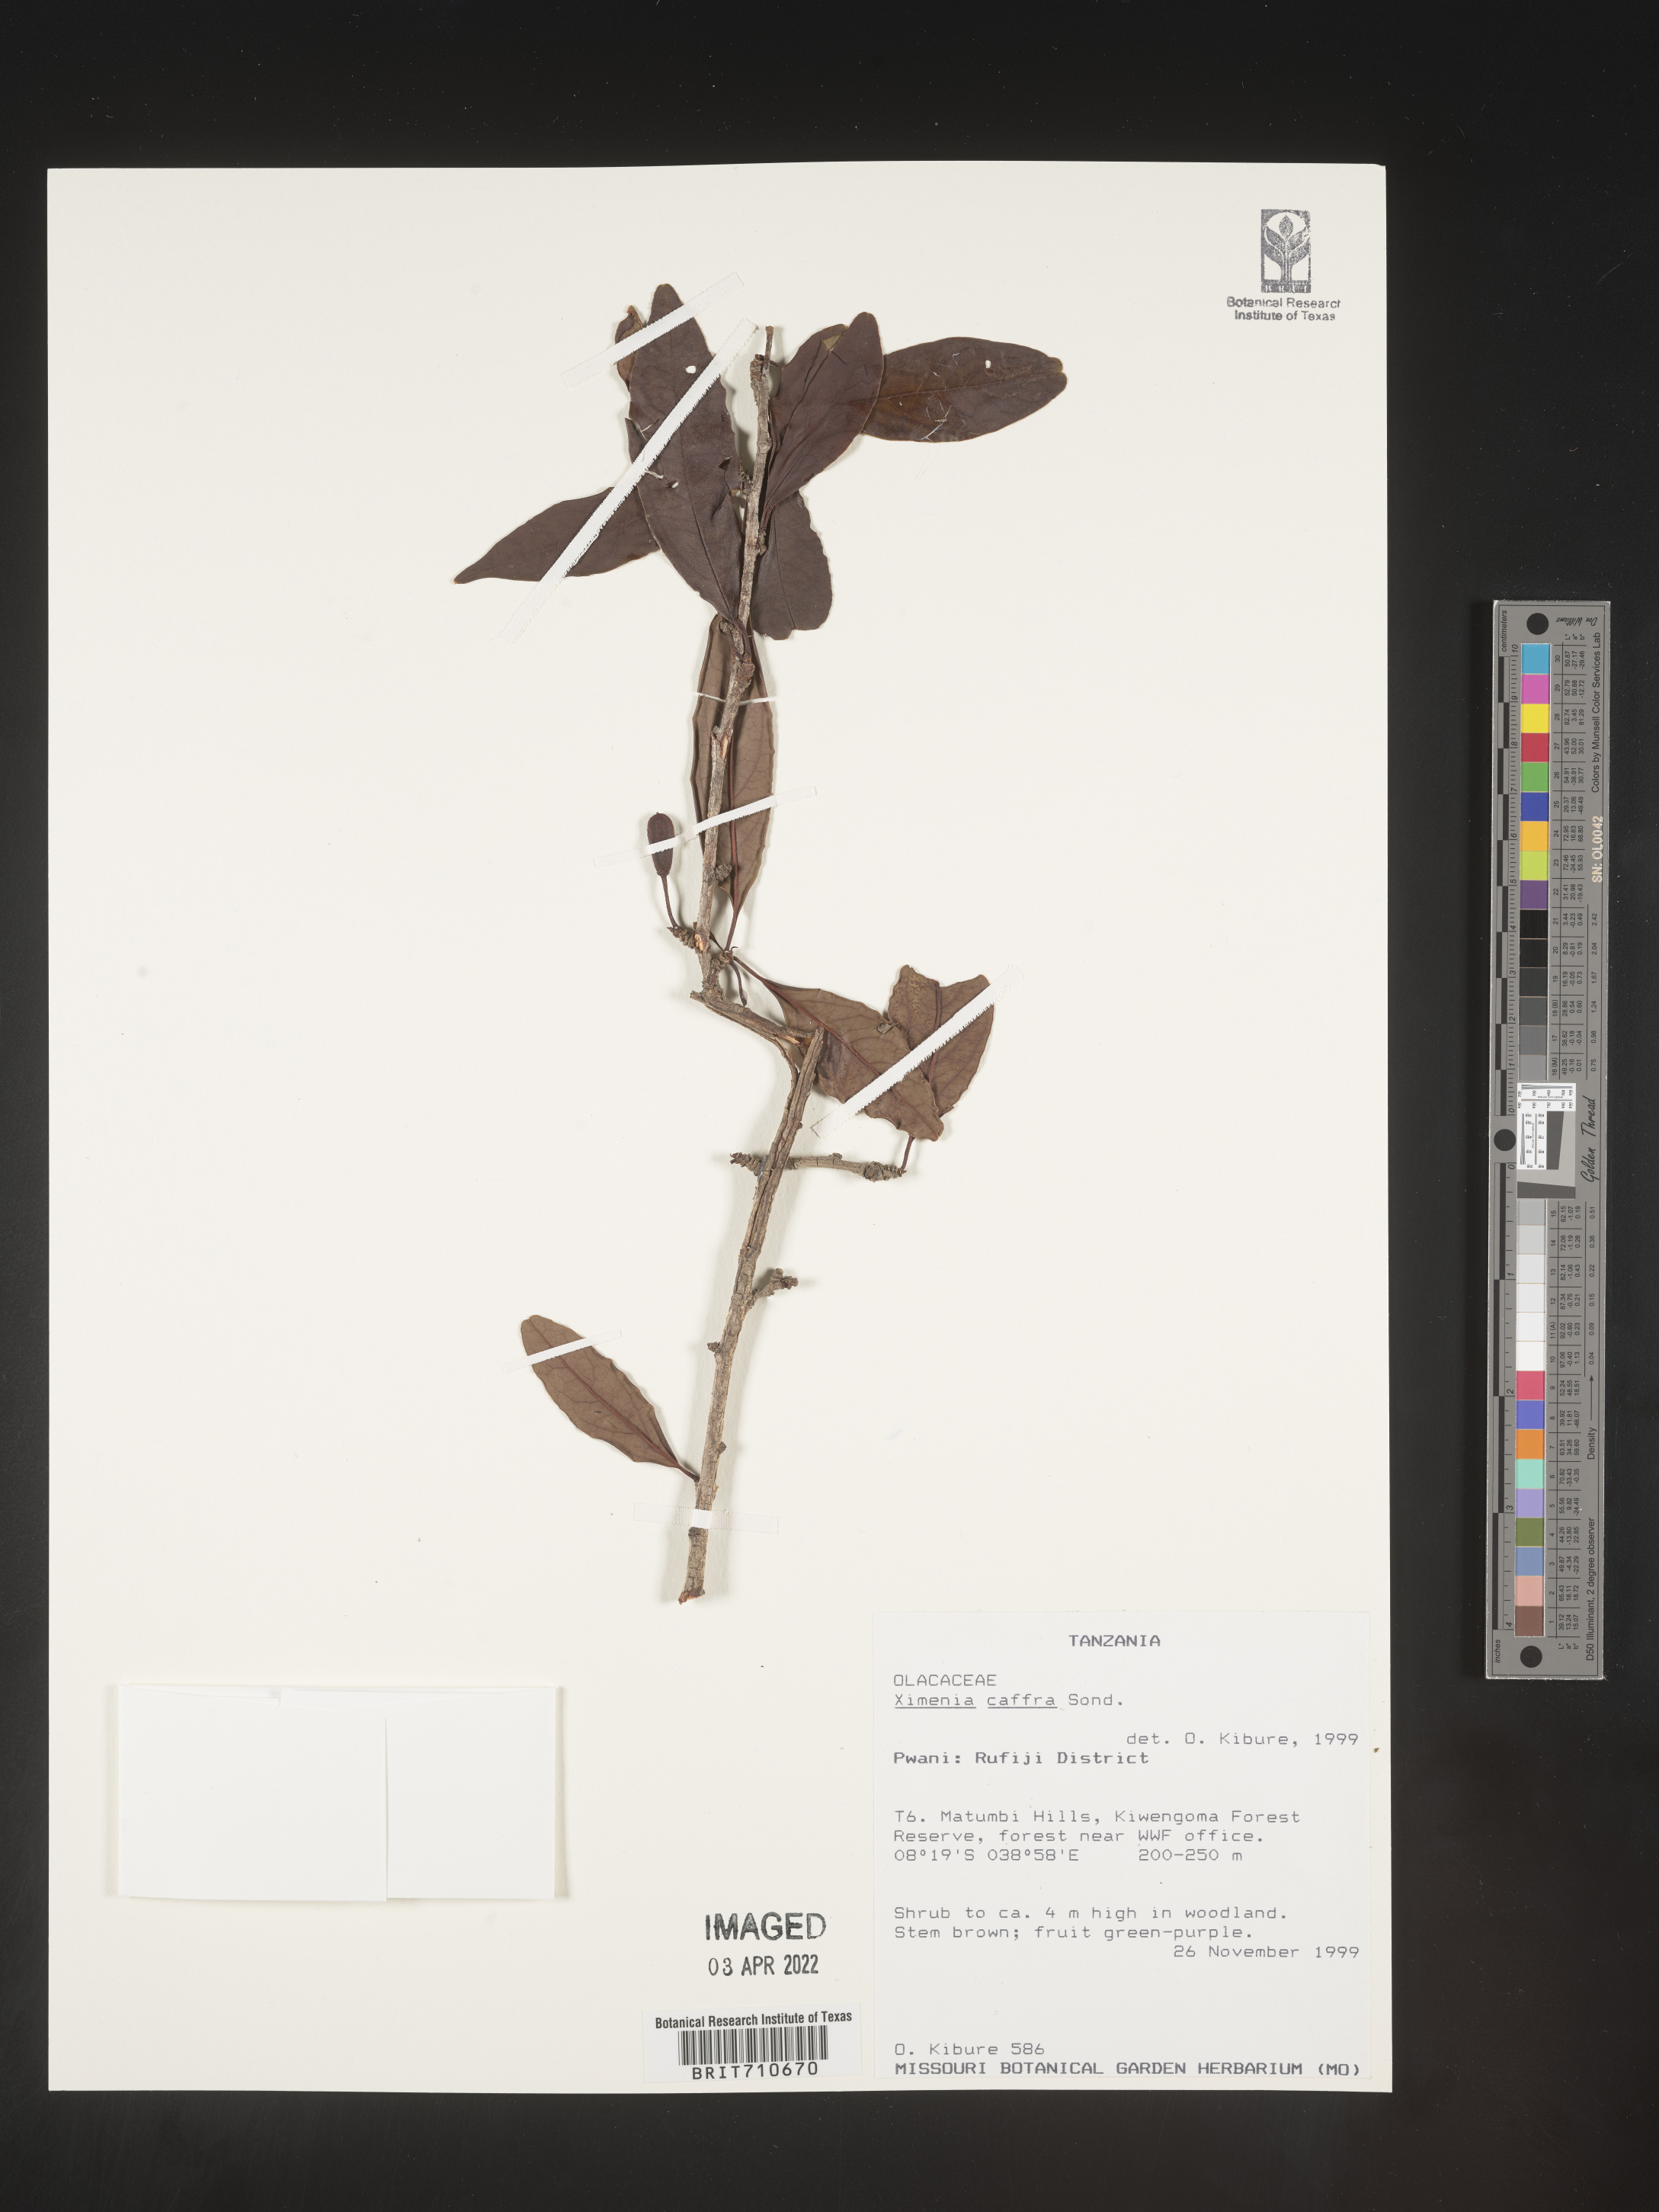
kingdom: Plantae
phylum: Tracheophyta
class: Magnoliopsida
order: Santalales
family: Ximeniaceae
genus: Ximenia
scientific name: Ximenia
